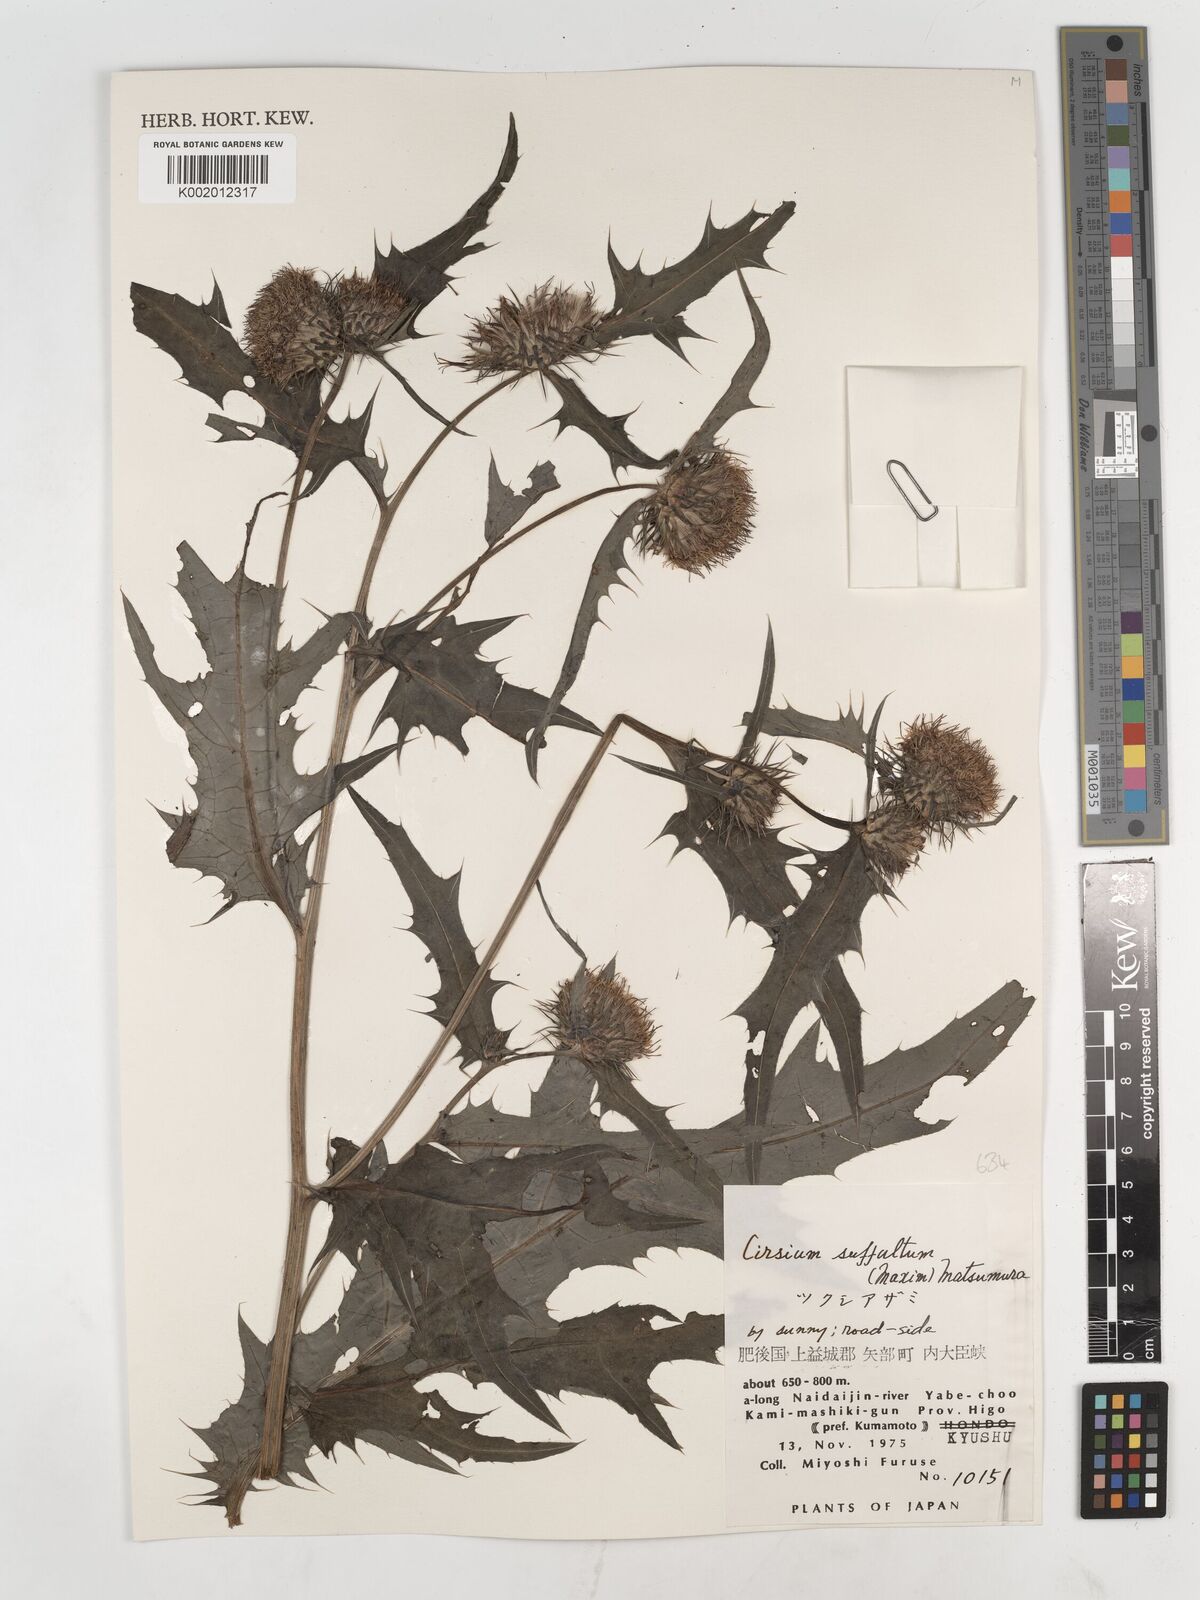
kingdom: Plantae
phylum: Tracheophyta
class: Magnoliopsida
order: Asterales
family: Asteraceae
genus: Cirsium
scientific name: Cirsium suffultum
